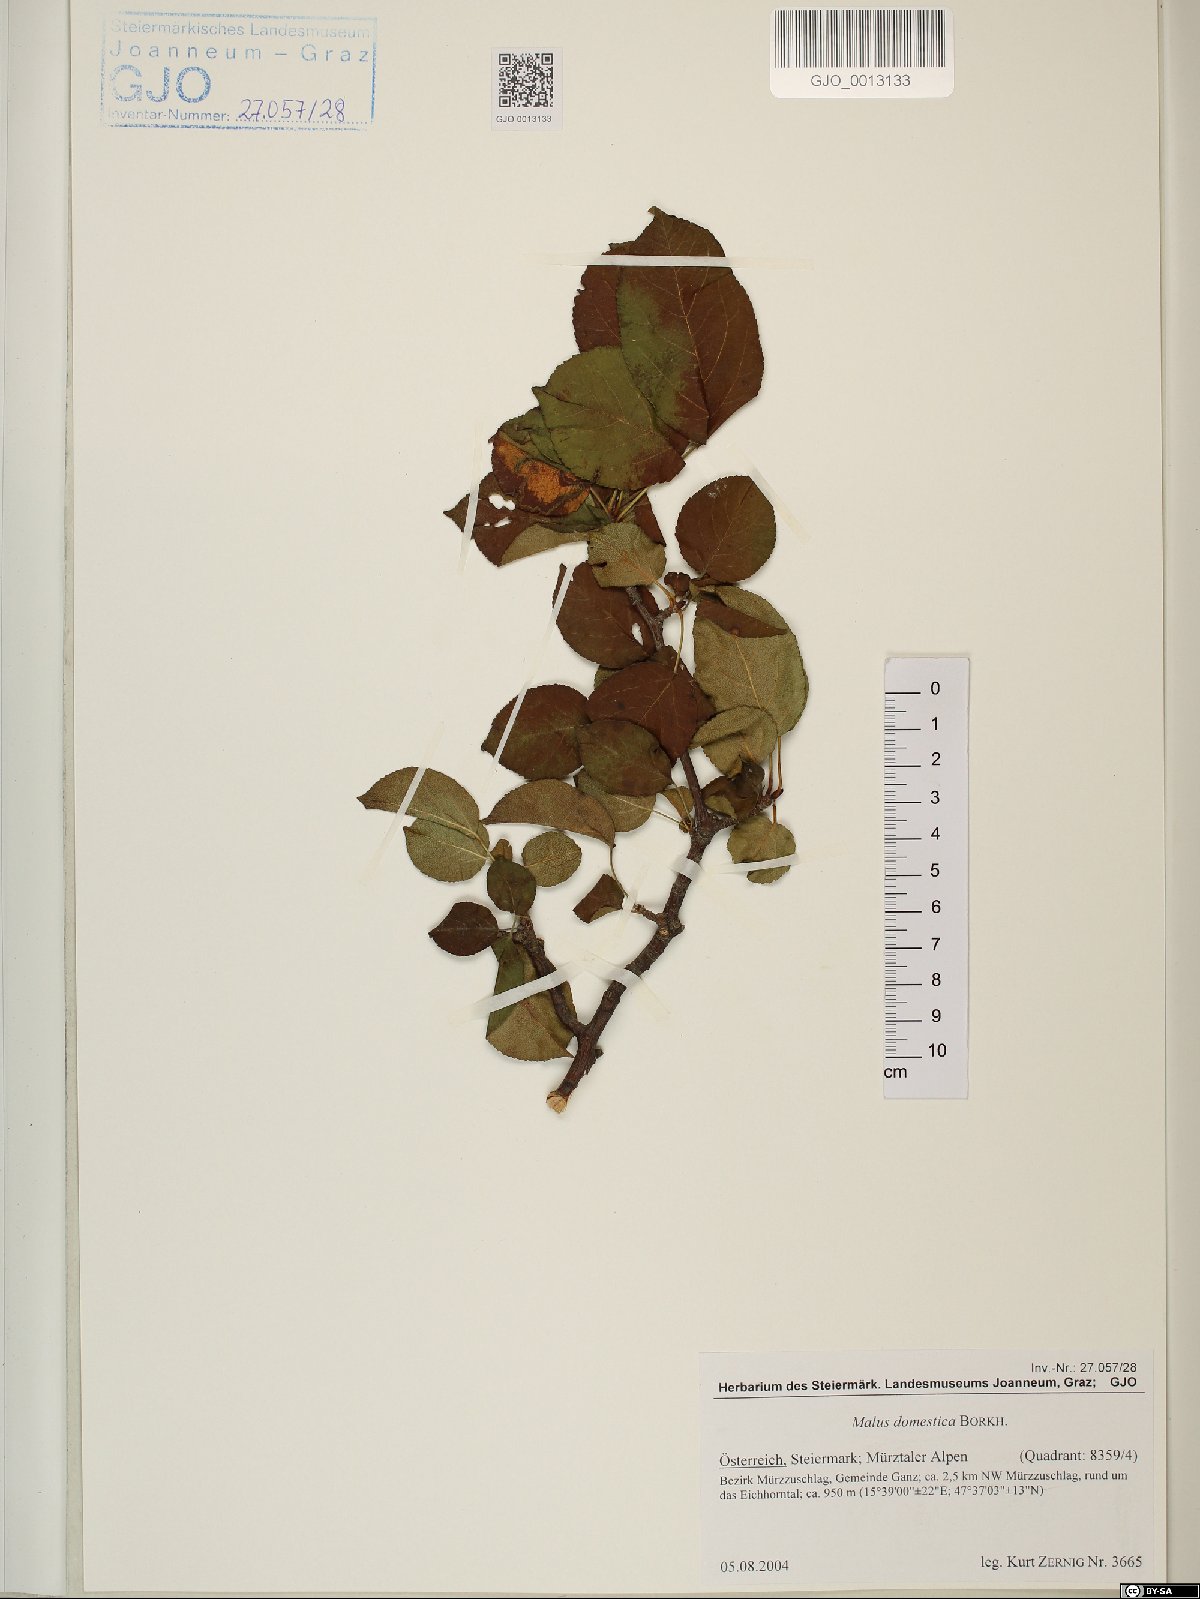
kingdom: Plantae
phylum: Tracheophyta
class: Magnoliopsida
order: Rosales
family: Rosaceae
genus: Malus
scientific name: Malus domestica
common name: Apple
